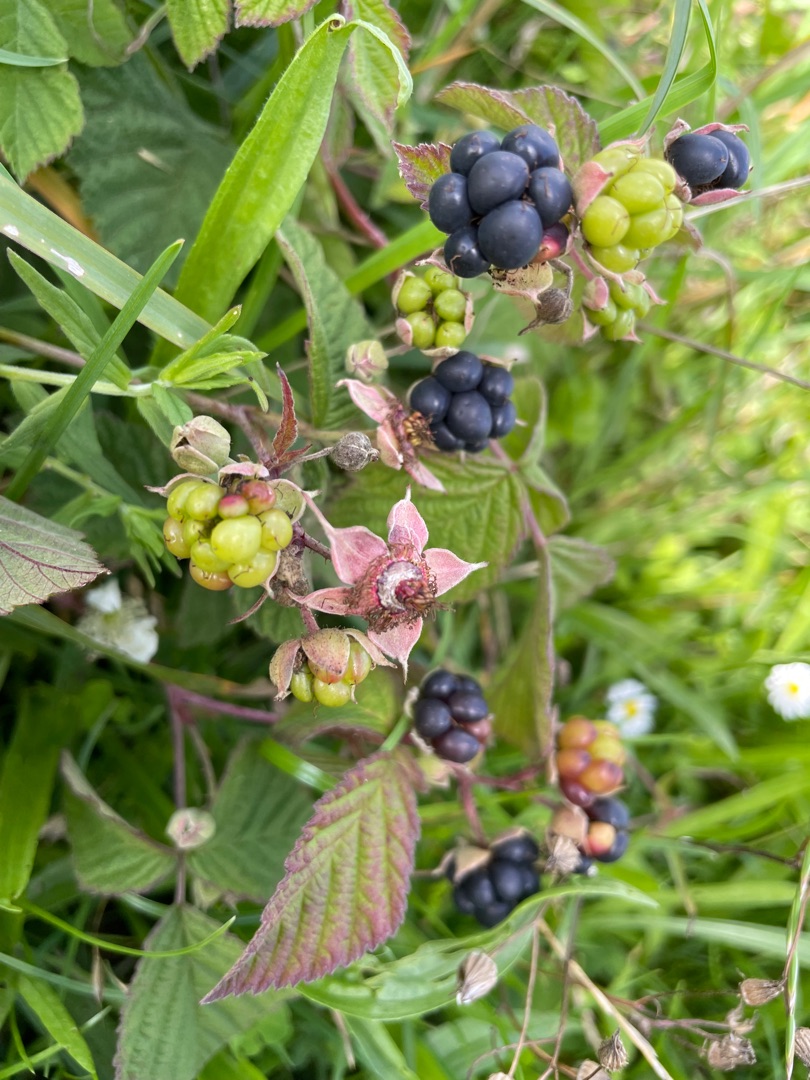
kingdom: Plantae
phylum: Tracheophyta
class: Magnoliopsida
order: Rosales
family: Rosaceae
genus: Rubus
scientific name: Rubus caesius
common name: Korbær
